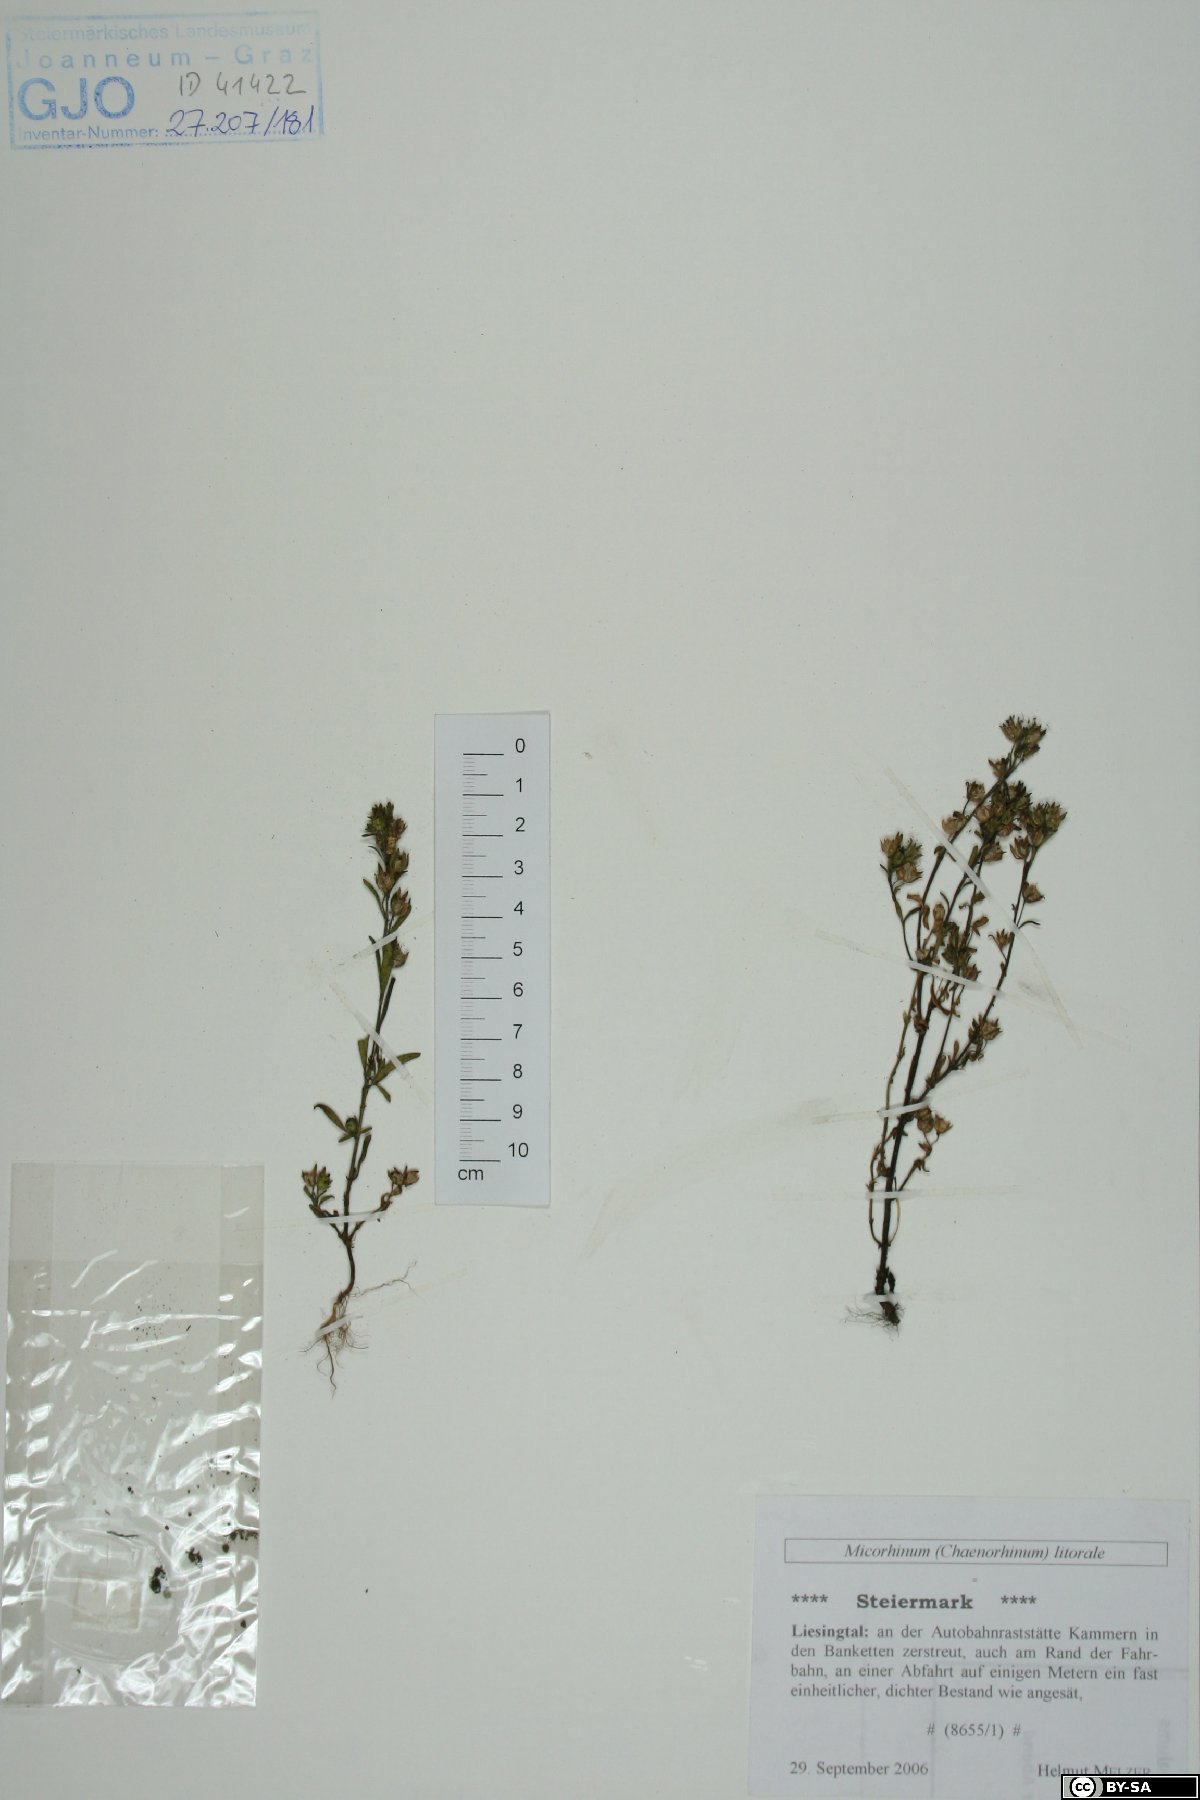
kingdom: Plantae
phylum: Tracheophyta
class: Magnoliopsida
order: Lamiales
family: Plantaginaceae
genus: Chaenorhinum
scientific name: Chaenorhinum litorale
